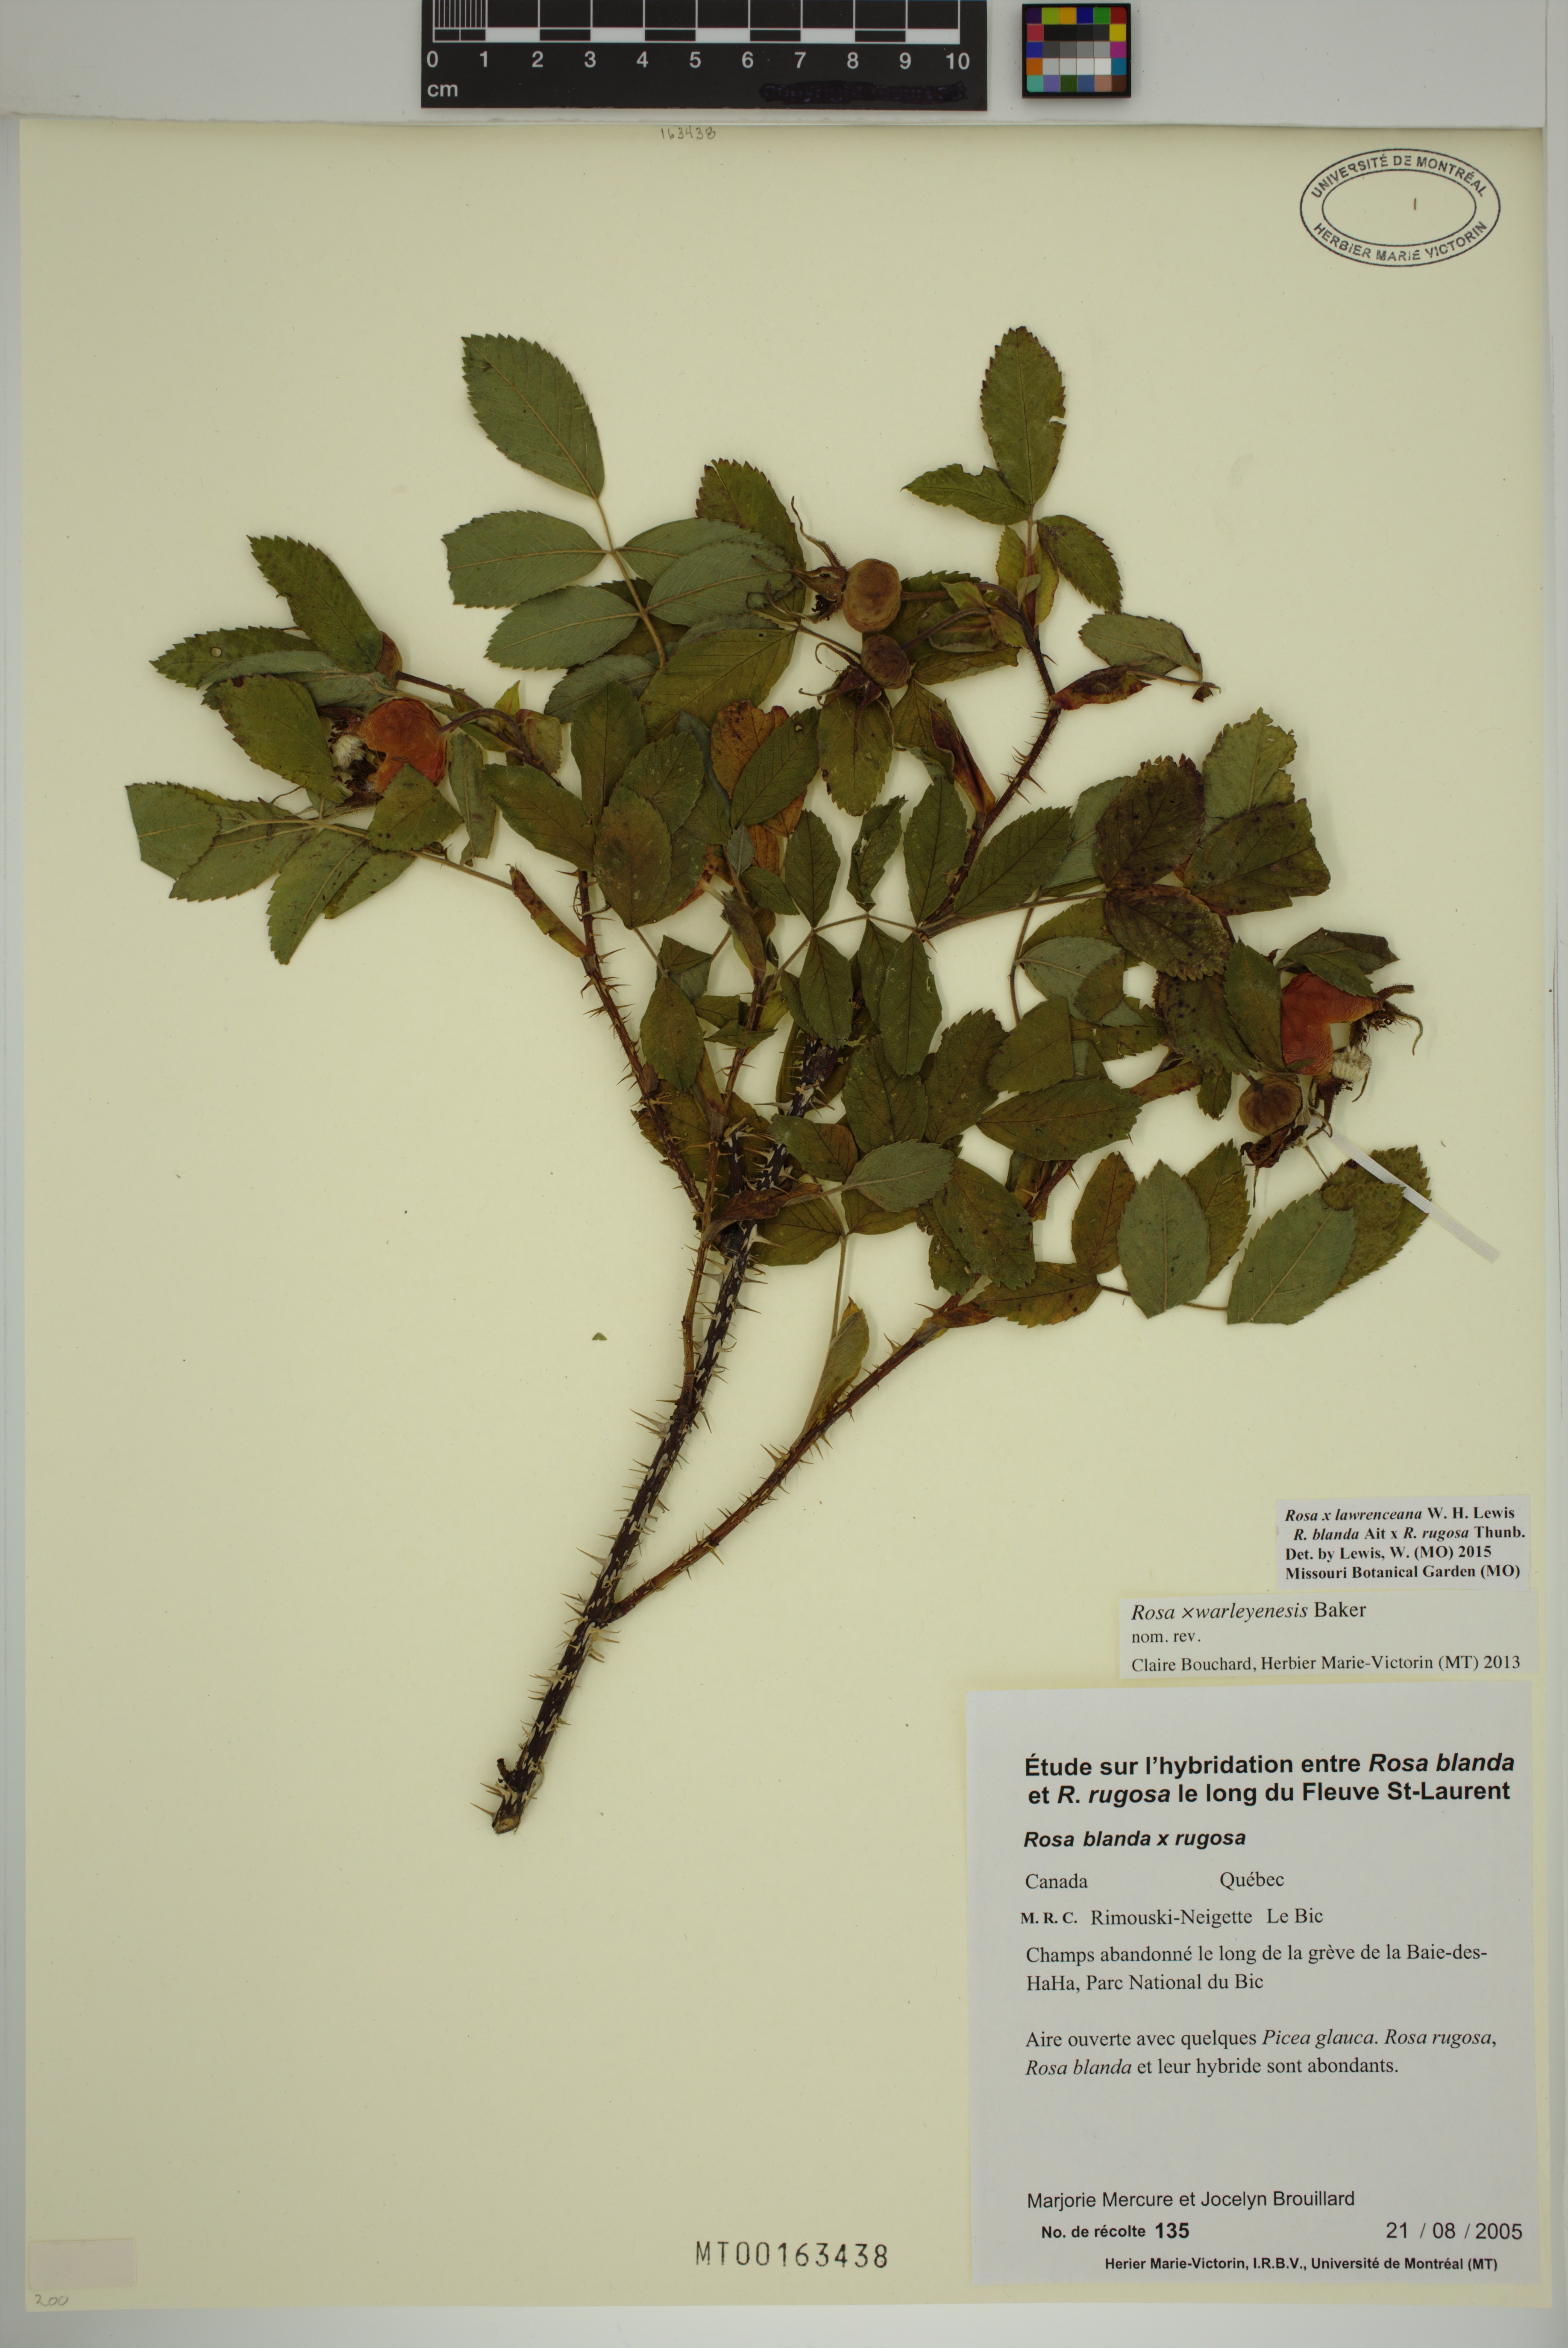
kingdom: Plantae
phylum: Tracheophyta
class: Magnoliopsida
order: Rosales
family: Rosaceae
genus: Rosa
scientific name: Rosa chinensis
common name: China rose
